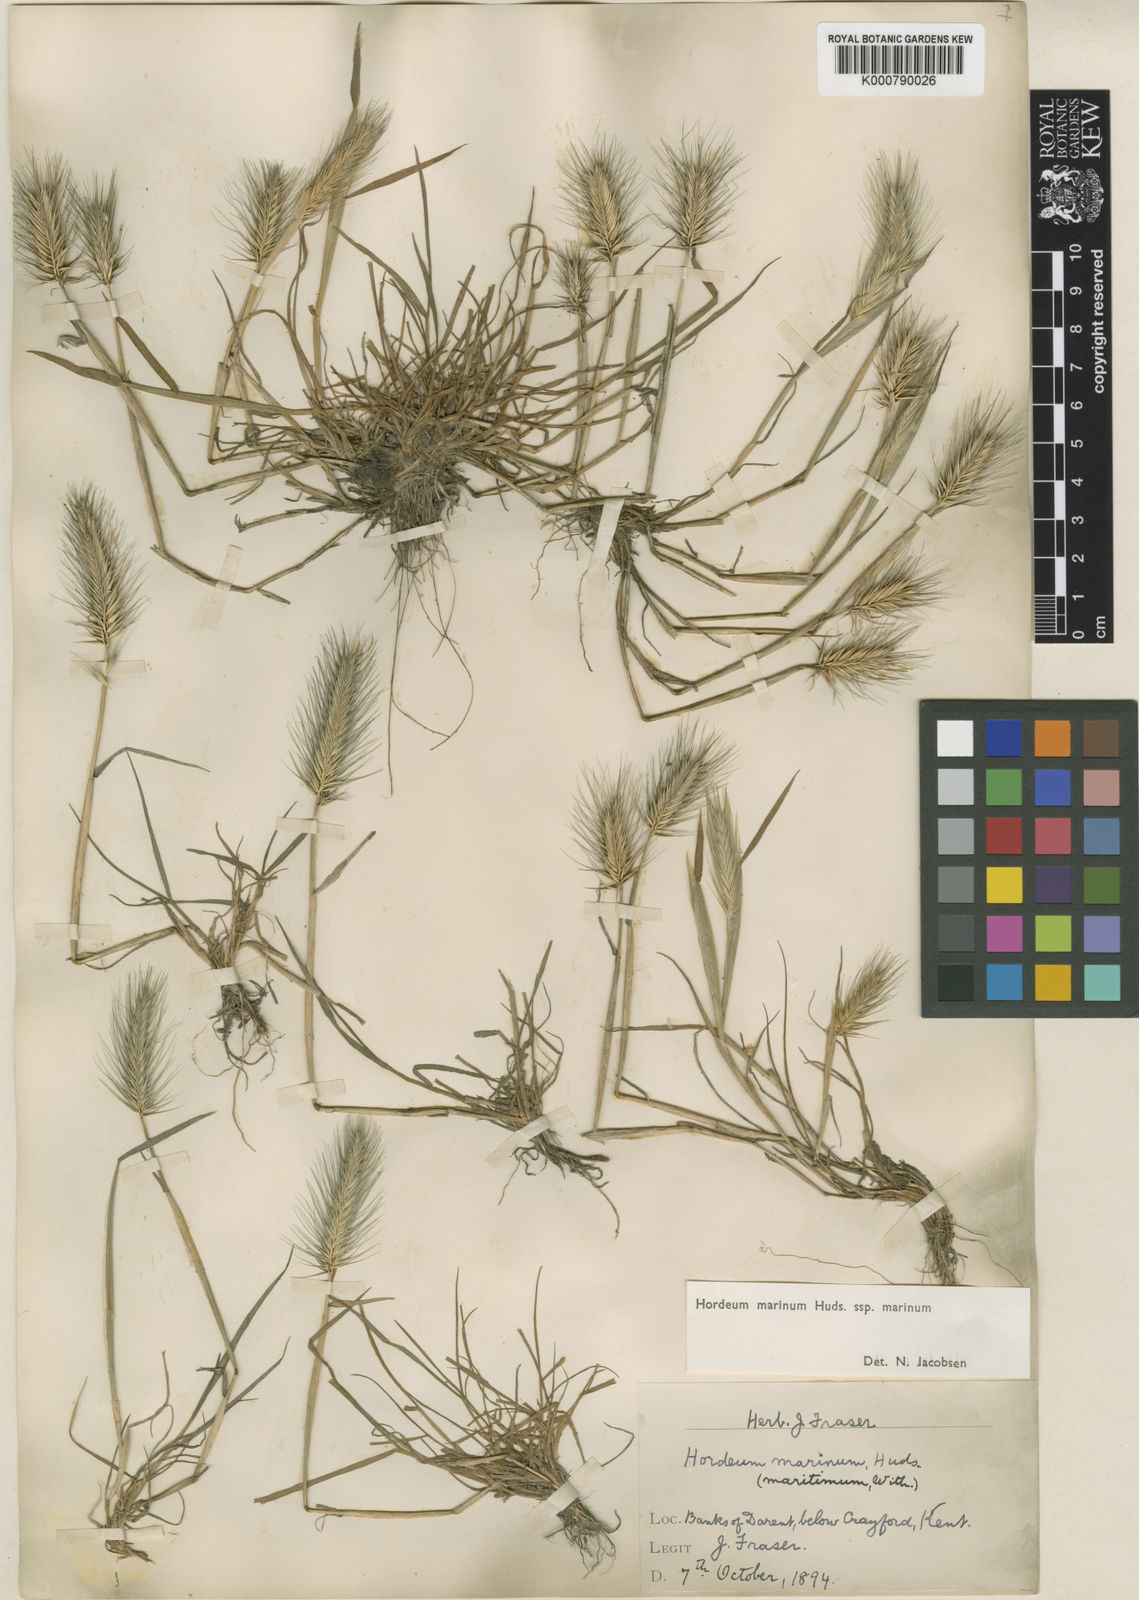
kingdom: Plantae
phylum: Tracheophyta
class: Liliopsida
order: Poales
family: Poaceae
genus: Hordeum
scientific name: Hordeum marinum
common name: Sea barley
